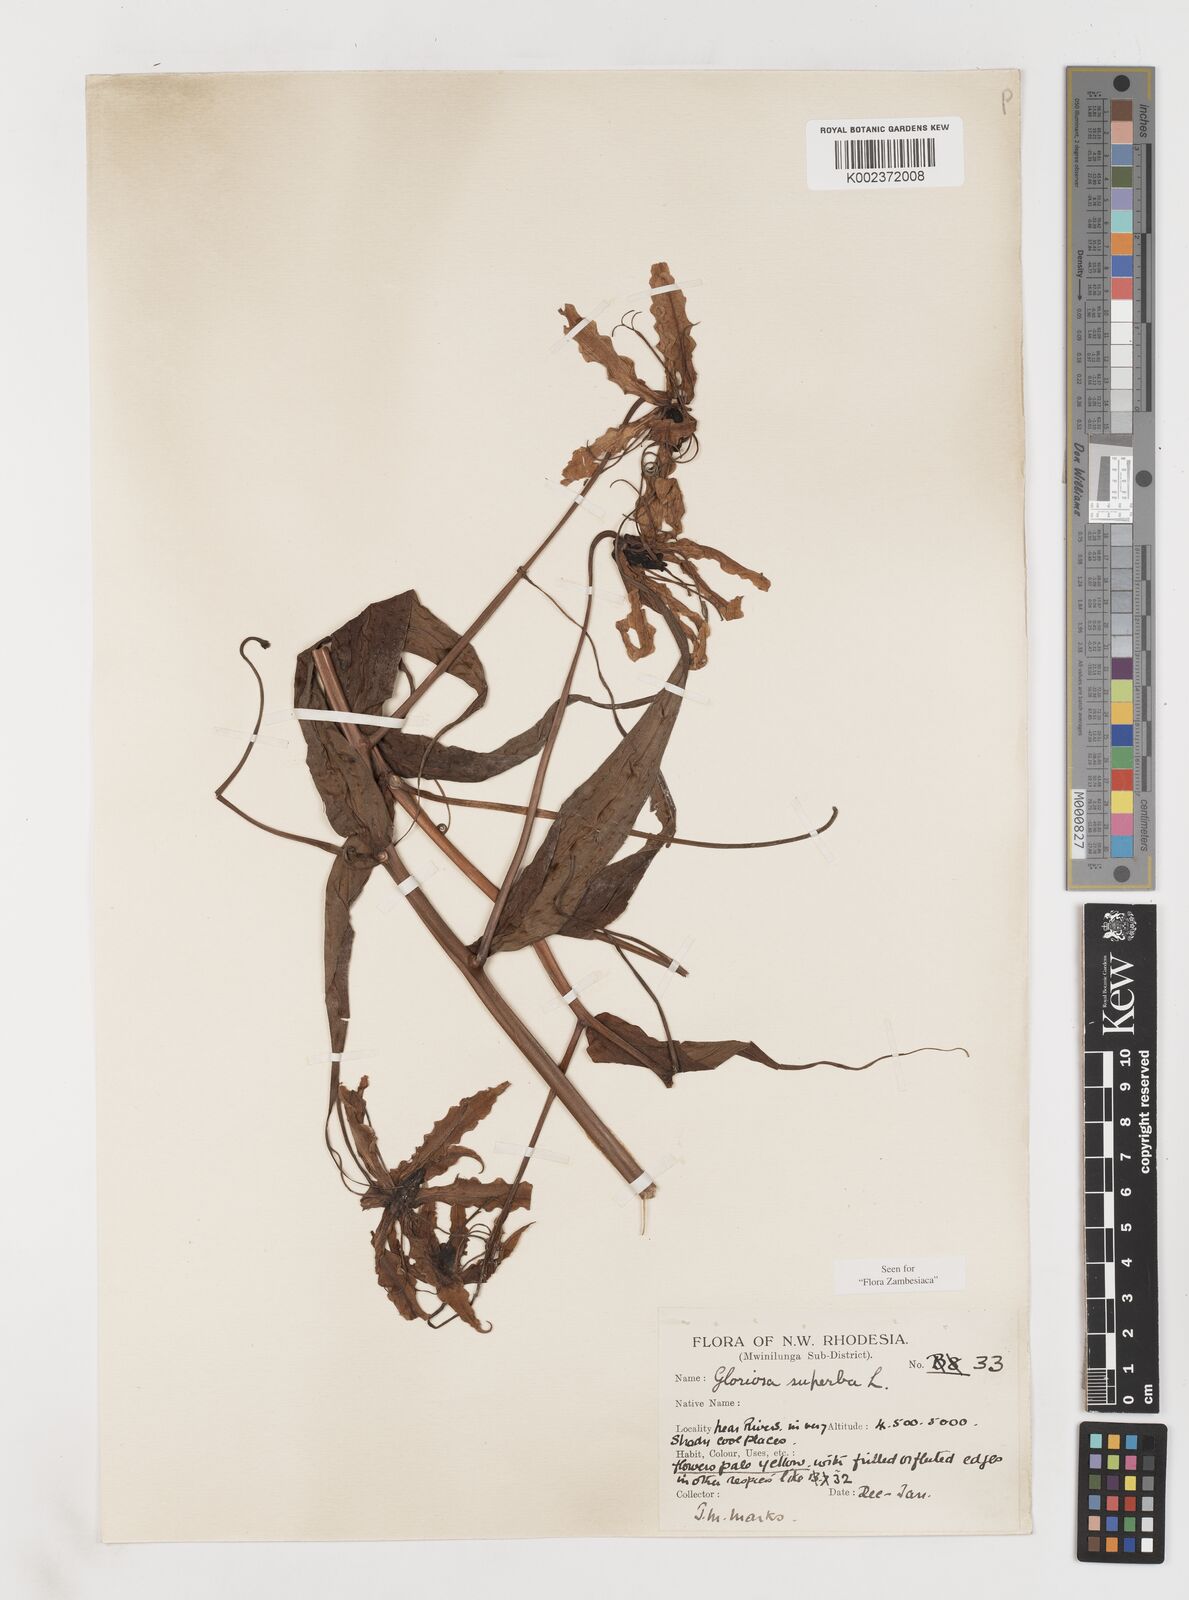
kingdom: Plantae
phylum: Tracheophyta
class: Liliopsida
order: Liliales
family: Colchicaceae
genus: Gloriosa
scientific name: Gloriosa superba
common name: Flame lily
